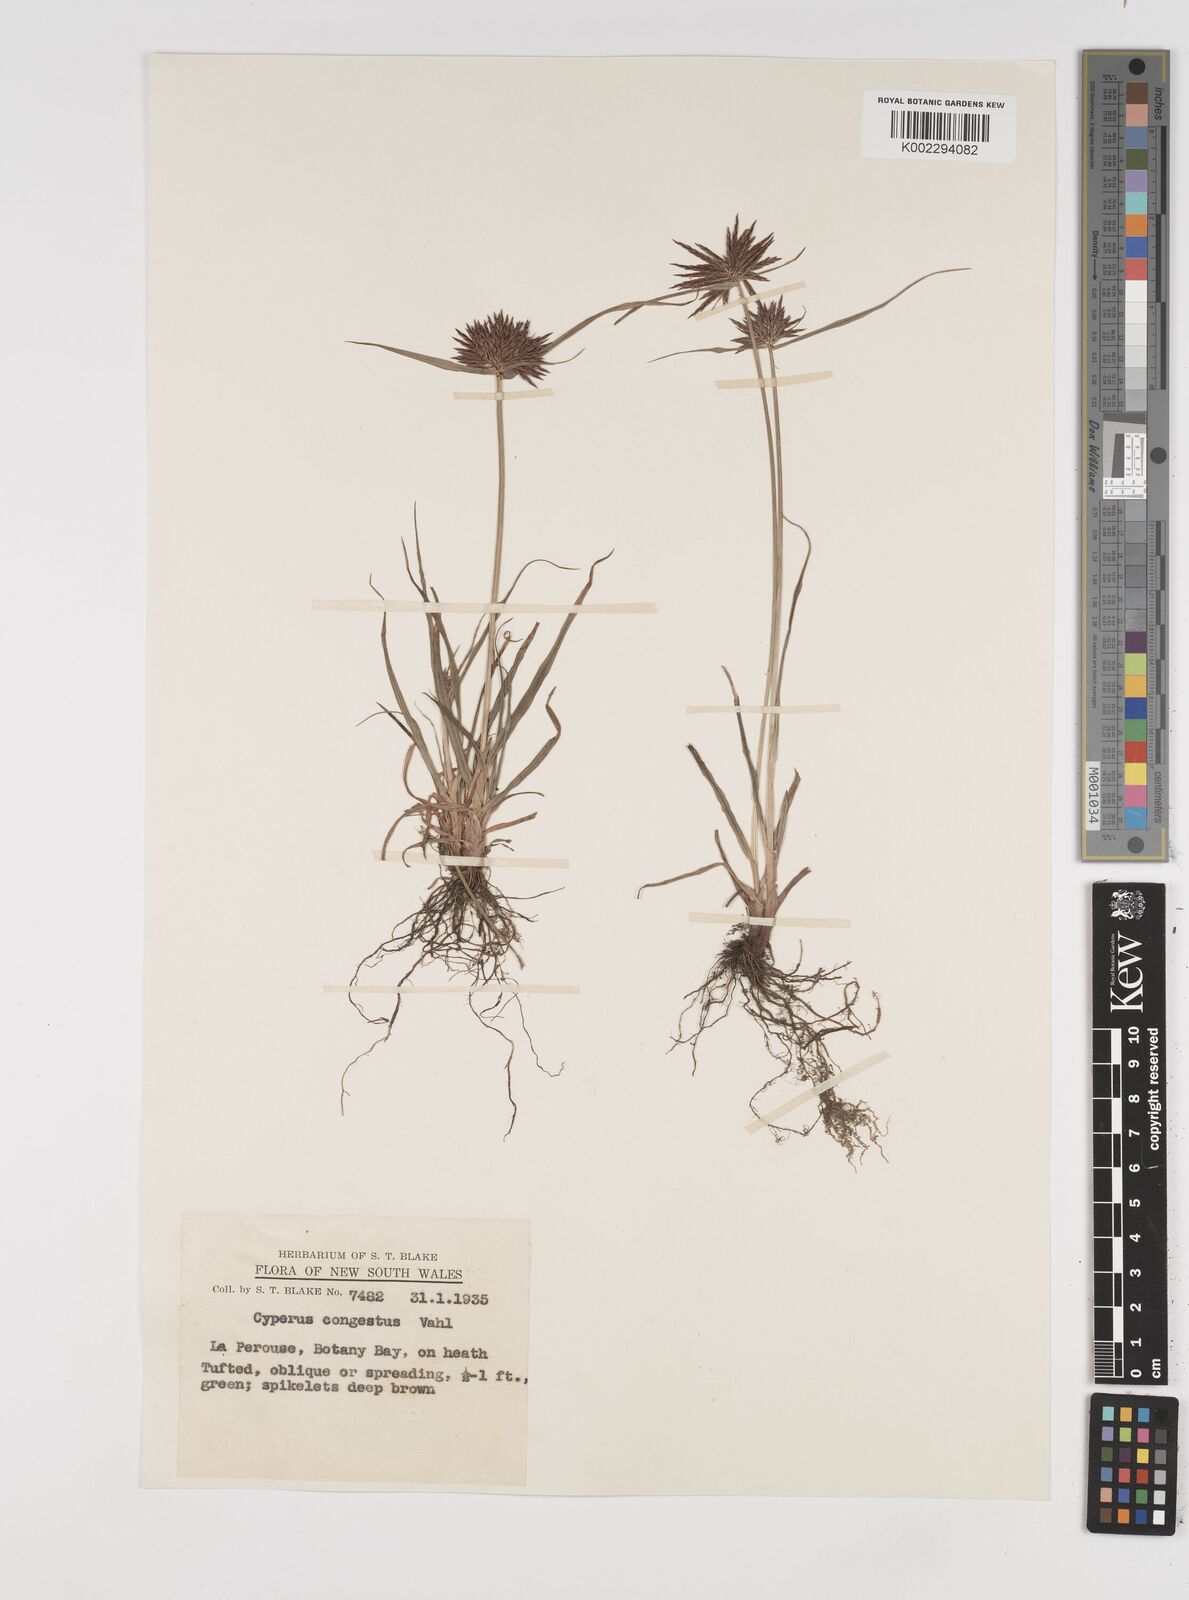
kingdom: Plantae
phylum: Tracheophyta
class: Liliopsida
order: Poales
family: Cyperaceae
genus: Cyperus
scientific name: Cyperus congestus
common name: Dense flat sedge
